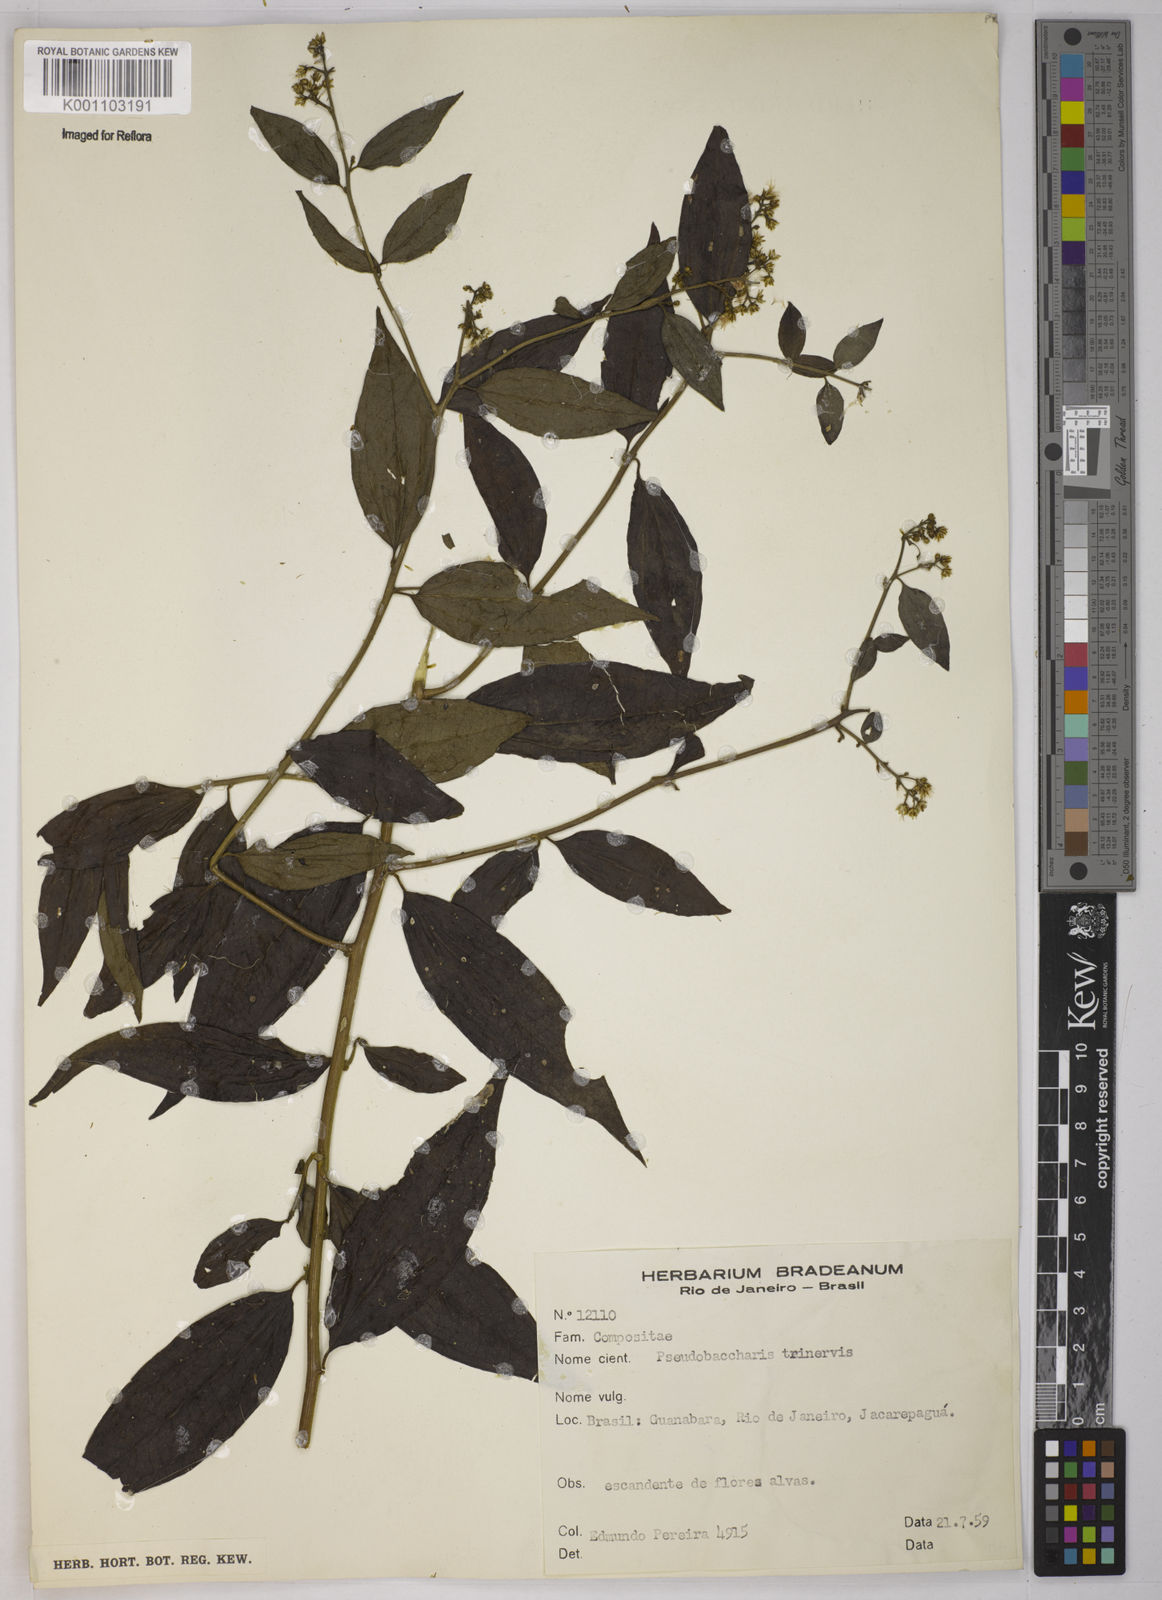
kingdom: Plantae
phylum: Tracheophyta
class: Magnoliopsida
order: Asterales
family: Asteraceae
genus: Baccharis
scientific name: Baccharis trinervis
